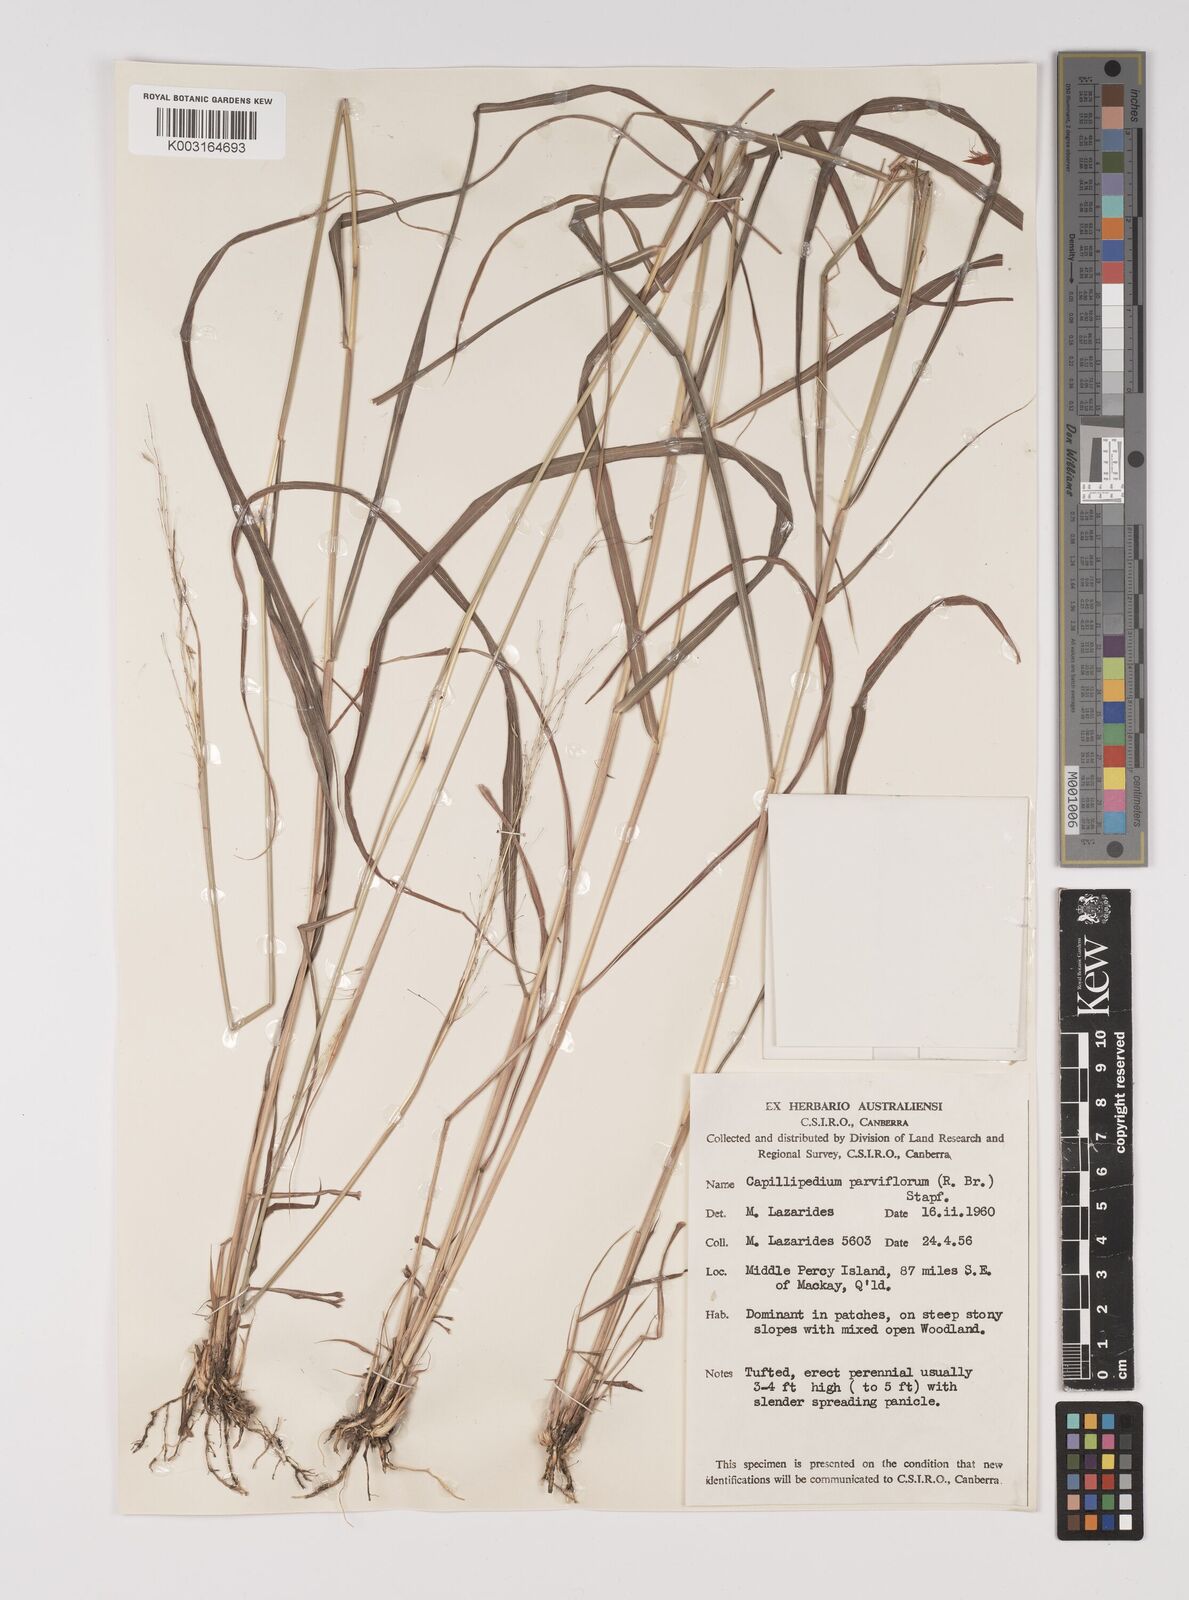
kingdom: Plantae
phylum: Tracheophyta
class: Liliopsida
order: Poales
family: Poaceae
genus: Capillipedium
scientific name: Capillipedium parviflorum
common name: Golden-beard
